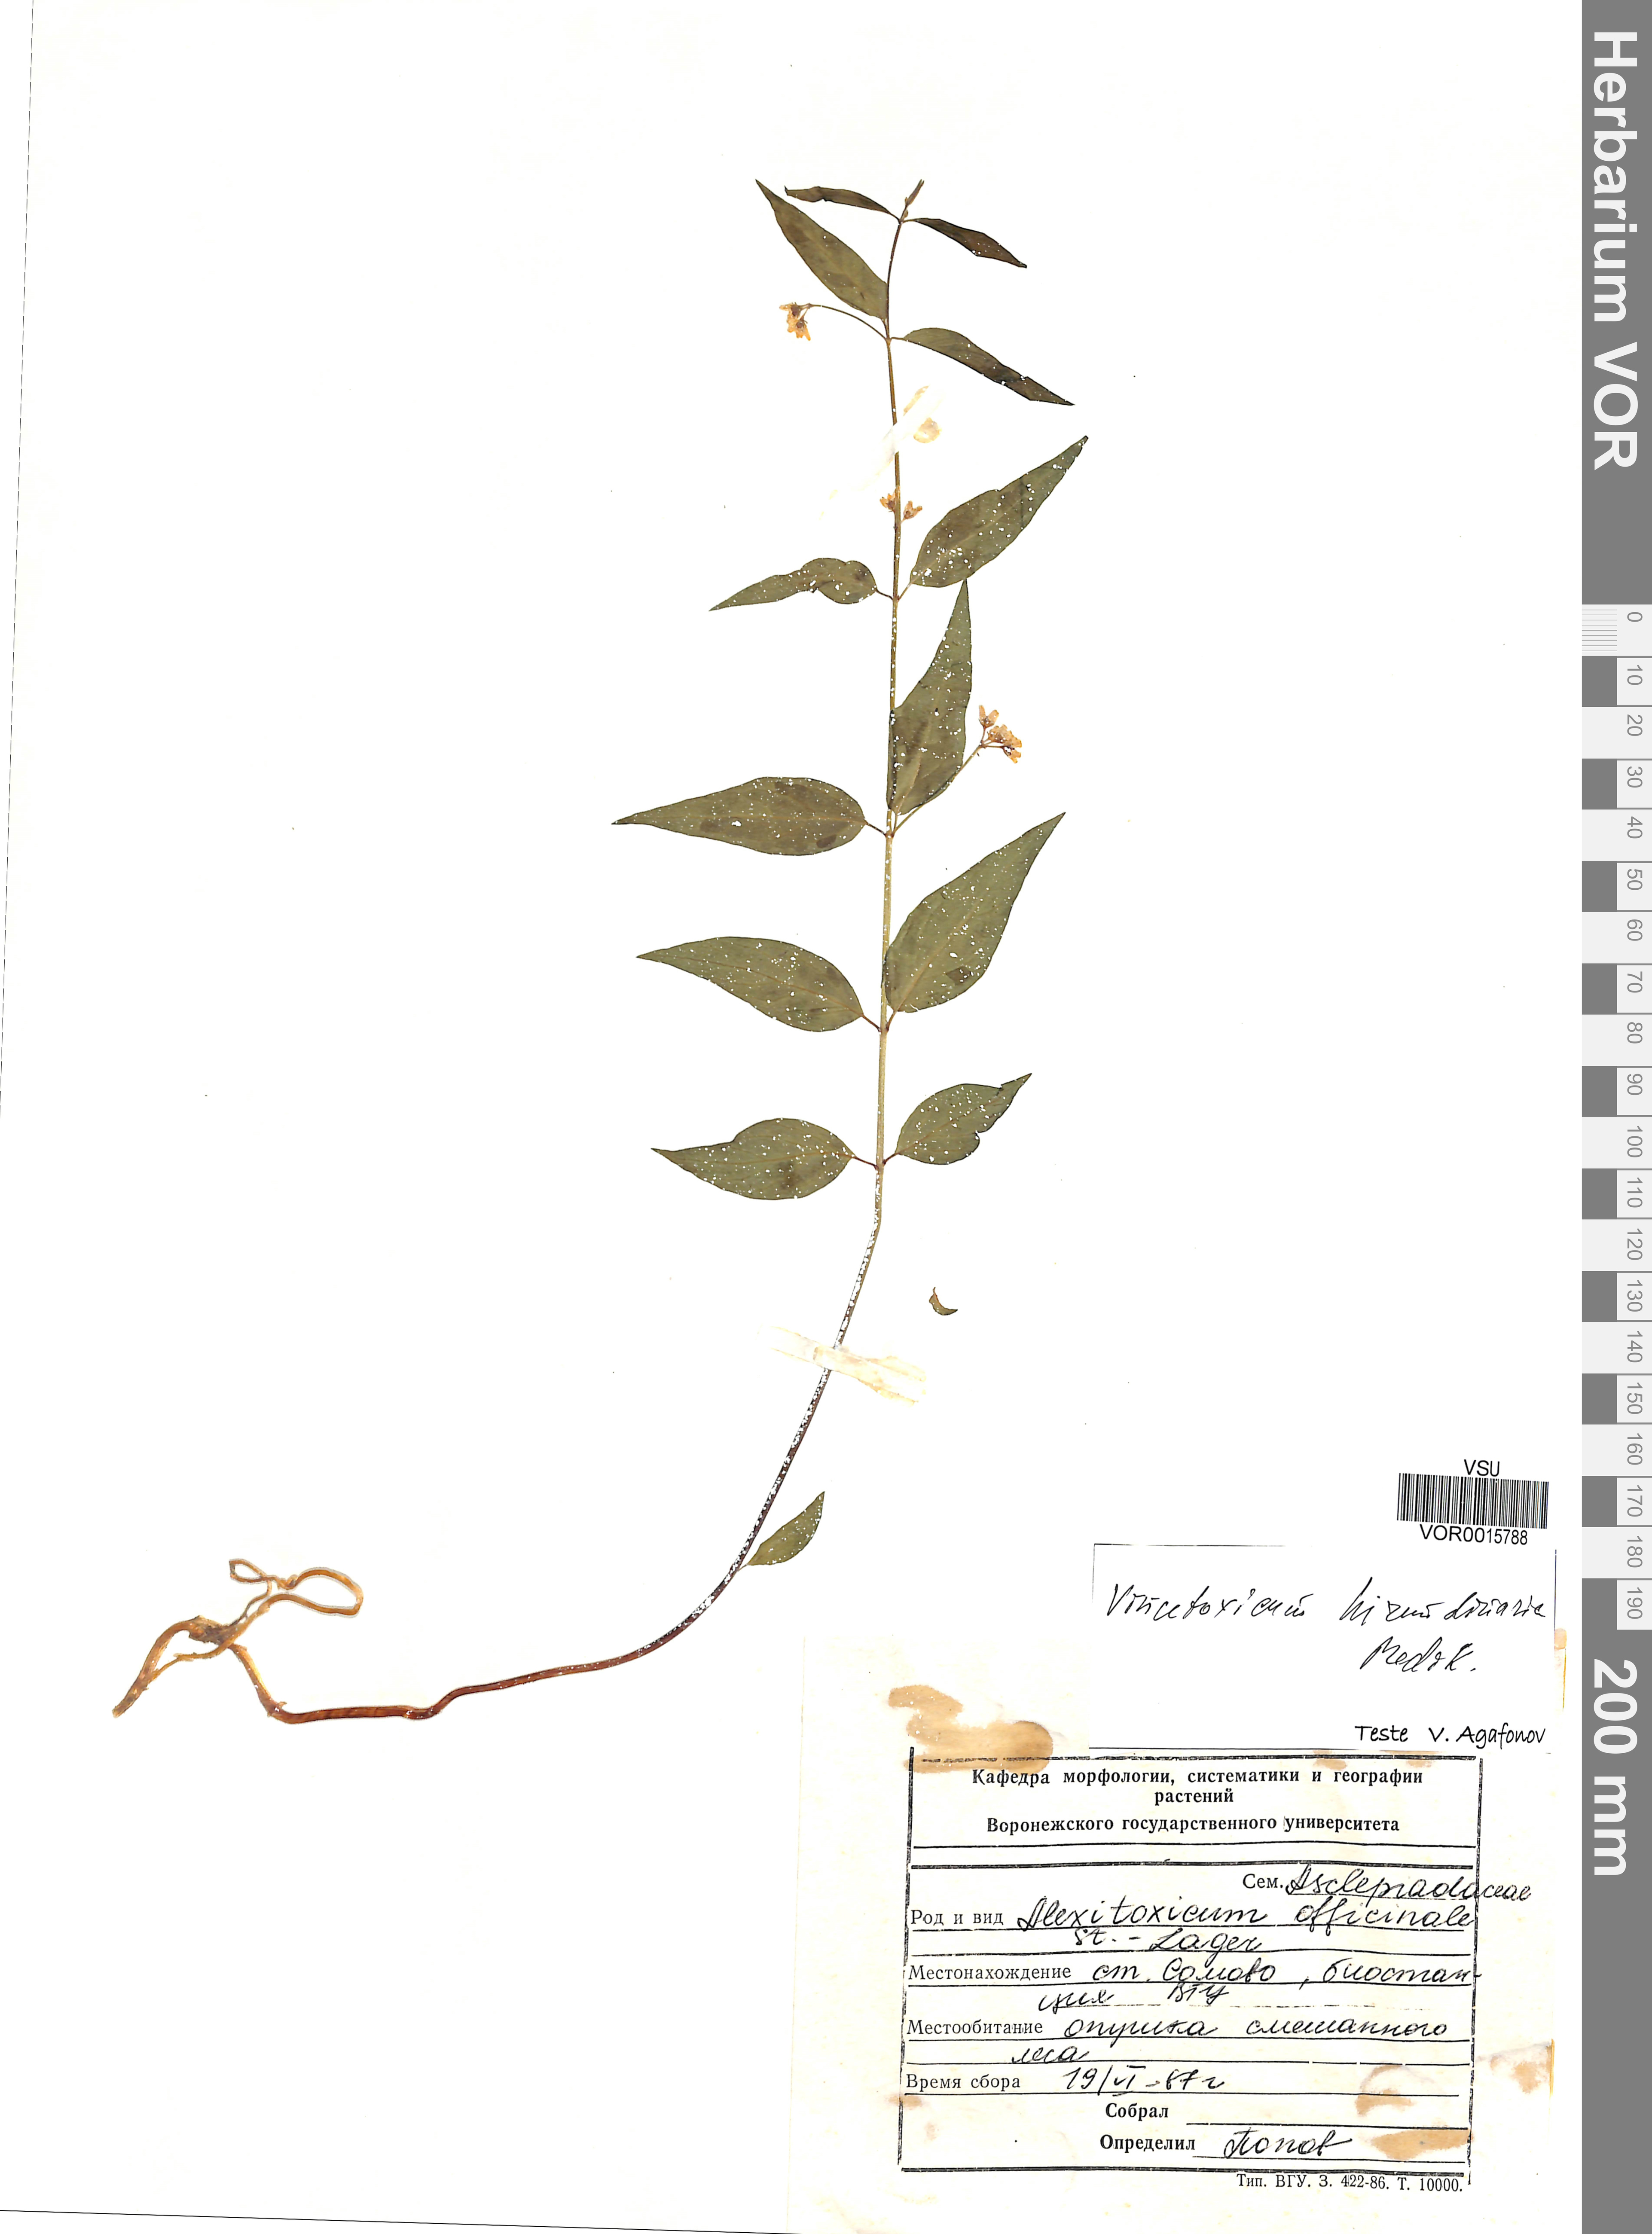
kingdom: Plantae
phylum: Tracheophyta
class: Magnoliopsida
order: Gentianales
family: Apocynaceae
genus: Vincetoxicum
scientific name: Vincetoxicum hirundinaria
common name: White swallowwort
